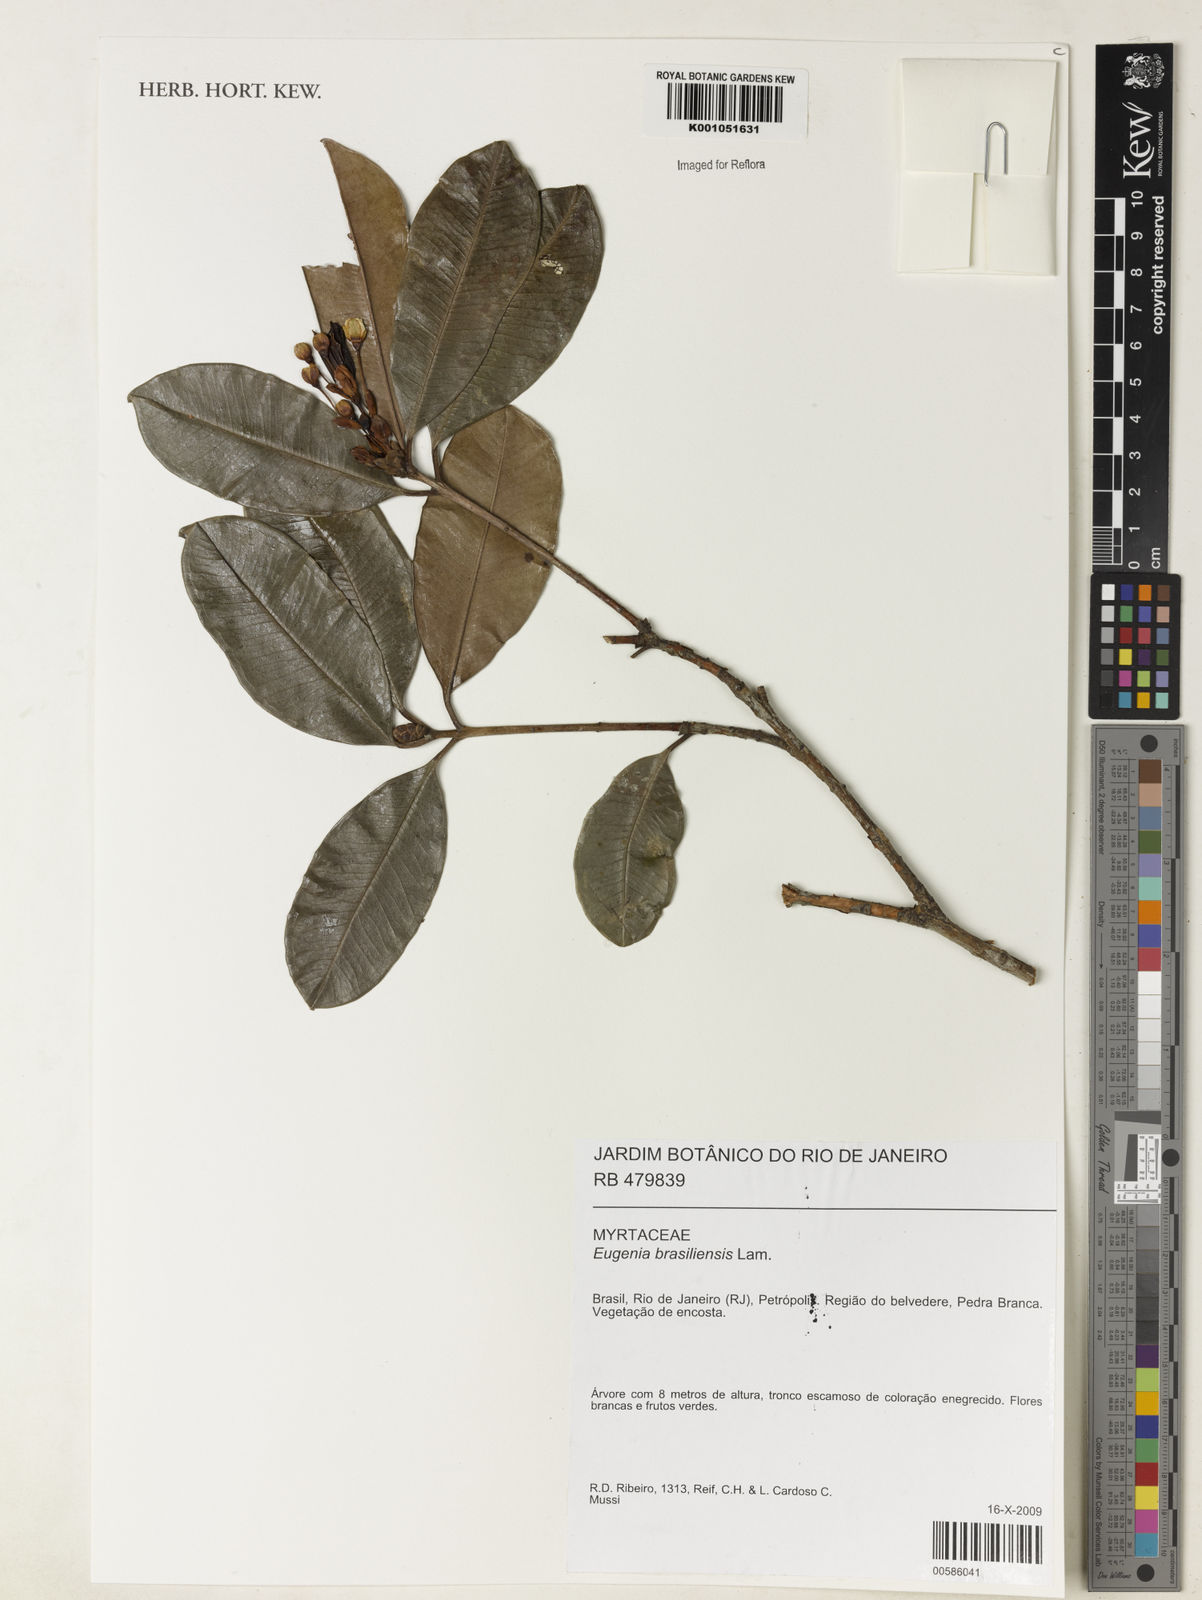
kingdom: Plantae
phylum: Tracheophyta
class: Magnoliopsida
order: Myrtales
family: Myrtaceae
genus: Eugenia
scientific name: Eugenia brasiliensis
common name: Grumichama
